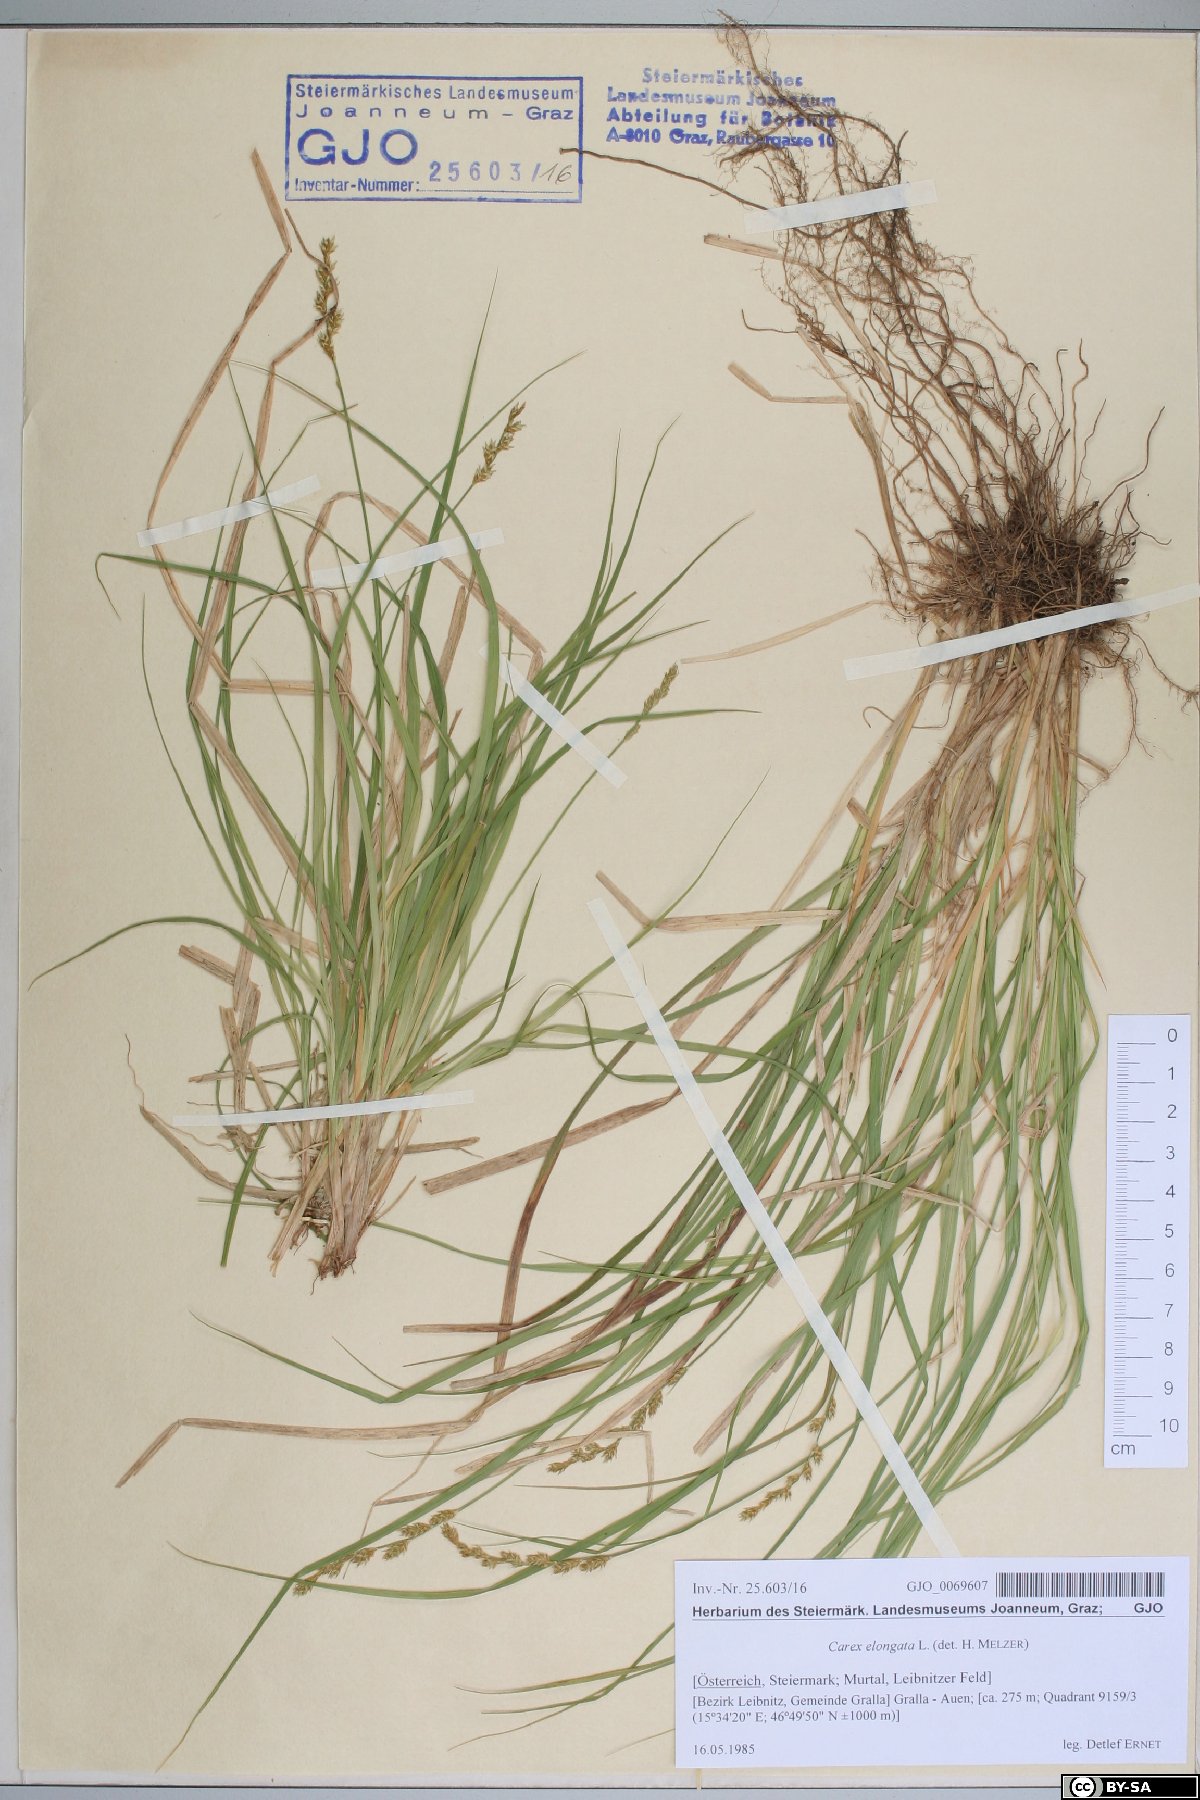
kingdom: Plantae
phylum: Tracheophyta
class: Liliopsida
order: Poales
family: Cyperaceae
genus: Carex
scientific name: Carex elongata
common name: Elongated sedge
